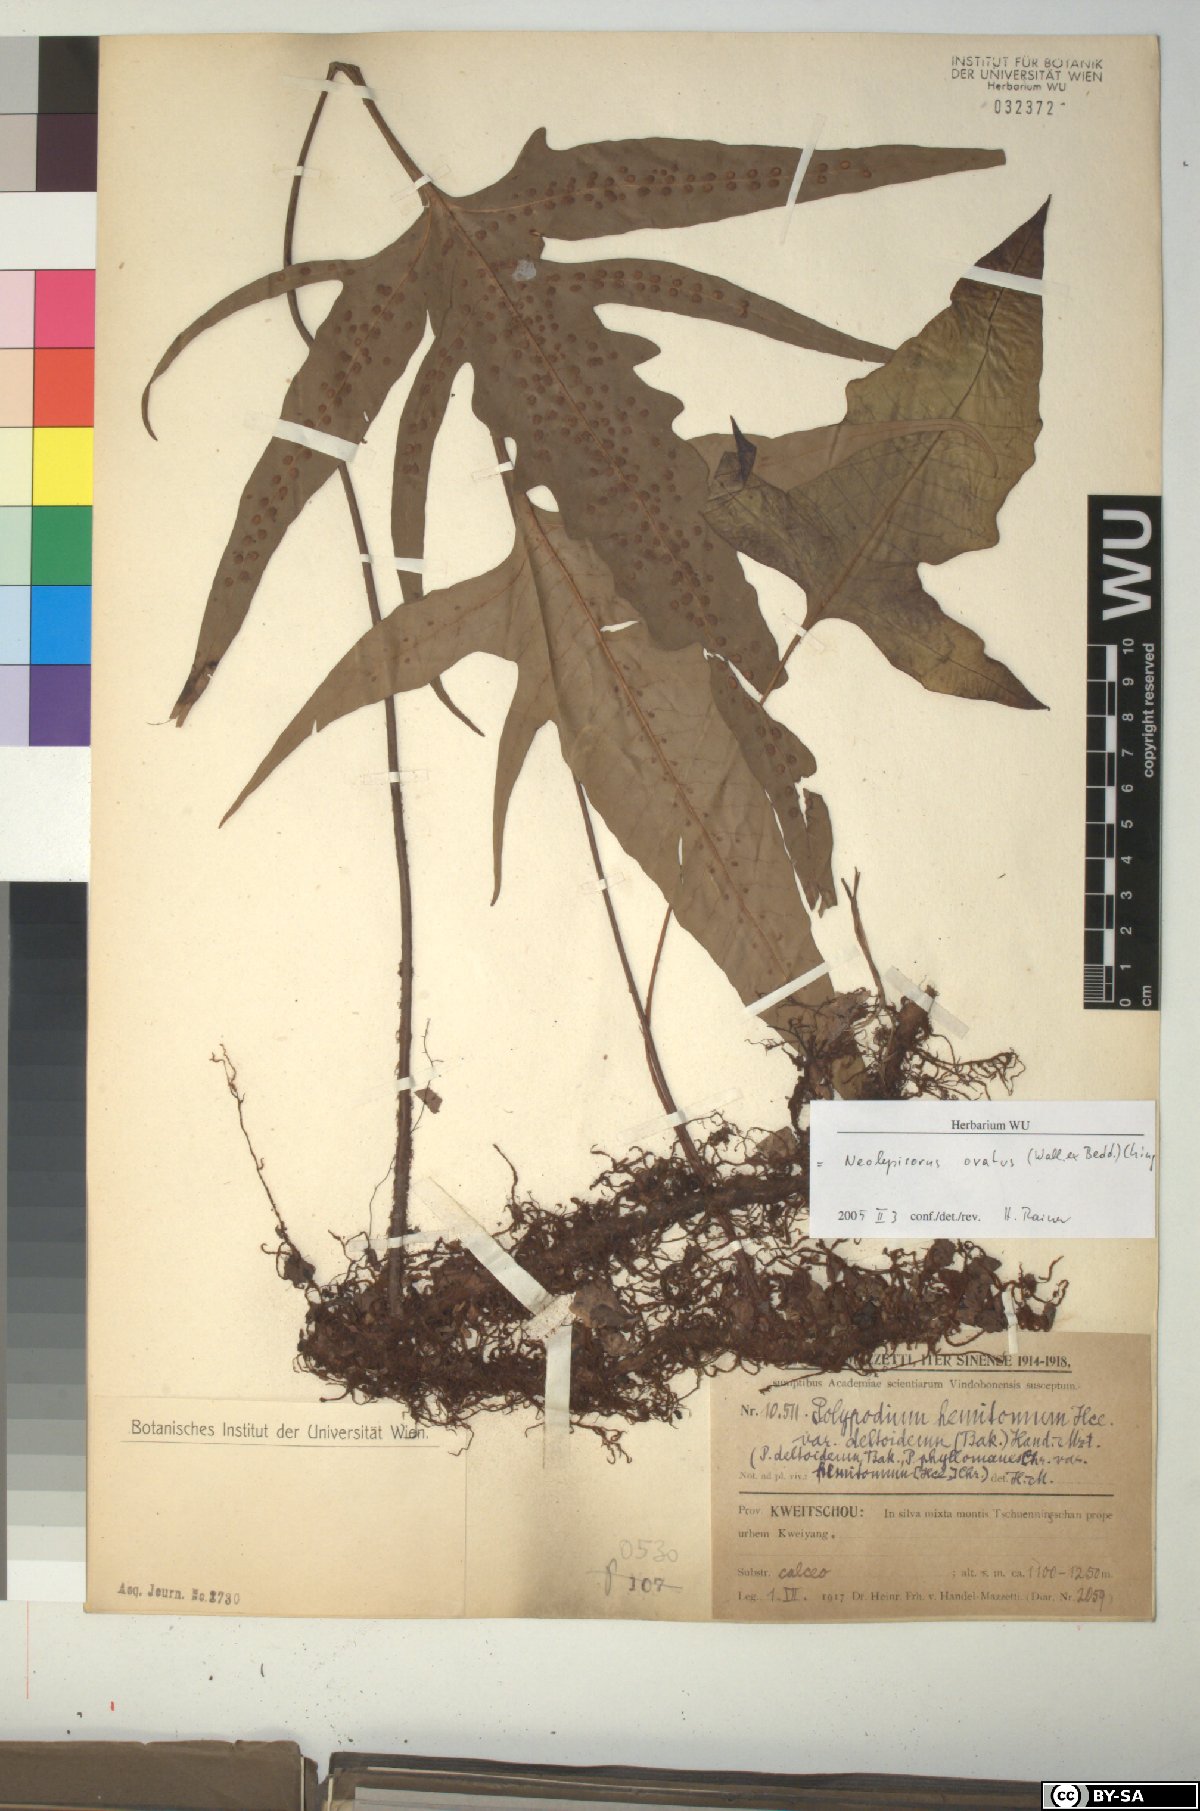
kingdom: Plantae
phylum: Tracheophyta
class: Polypodiopsida
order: Polypodiales
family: Polypodiaceae
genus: Lepisorus
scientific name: Lepisorus ovatus
